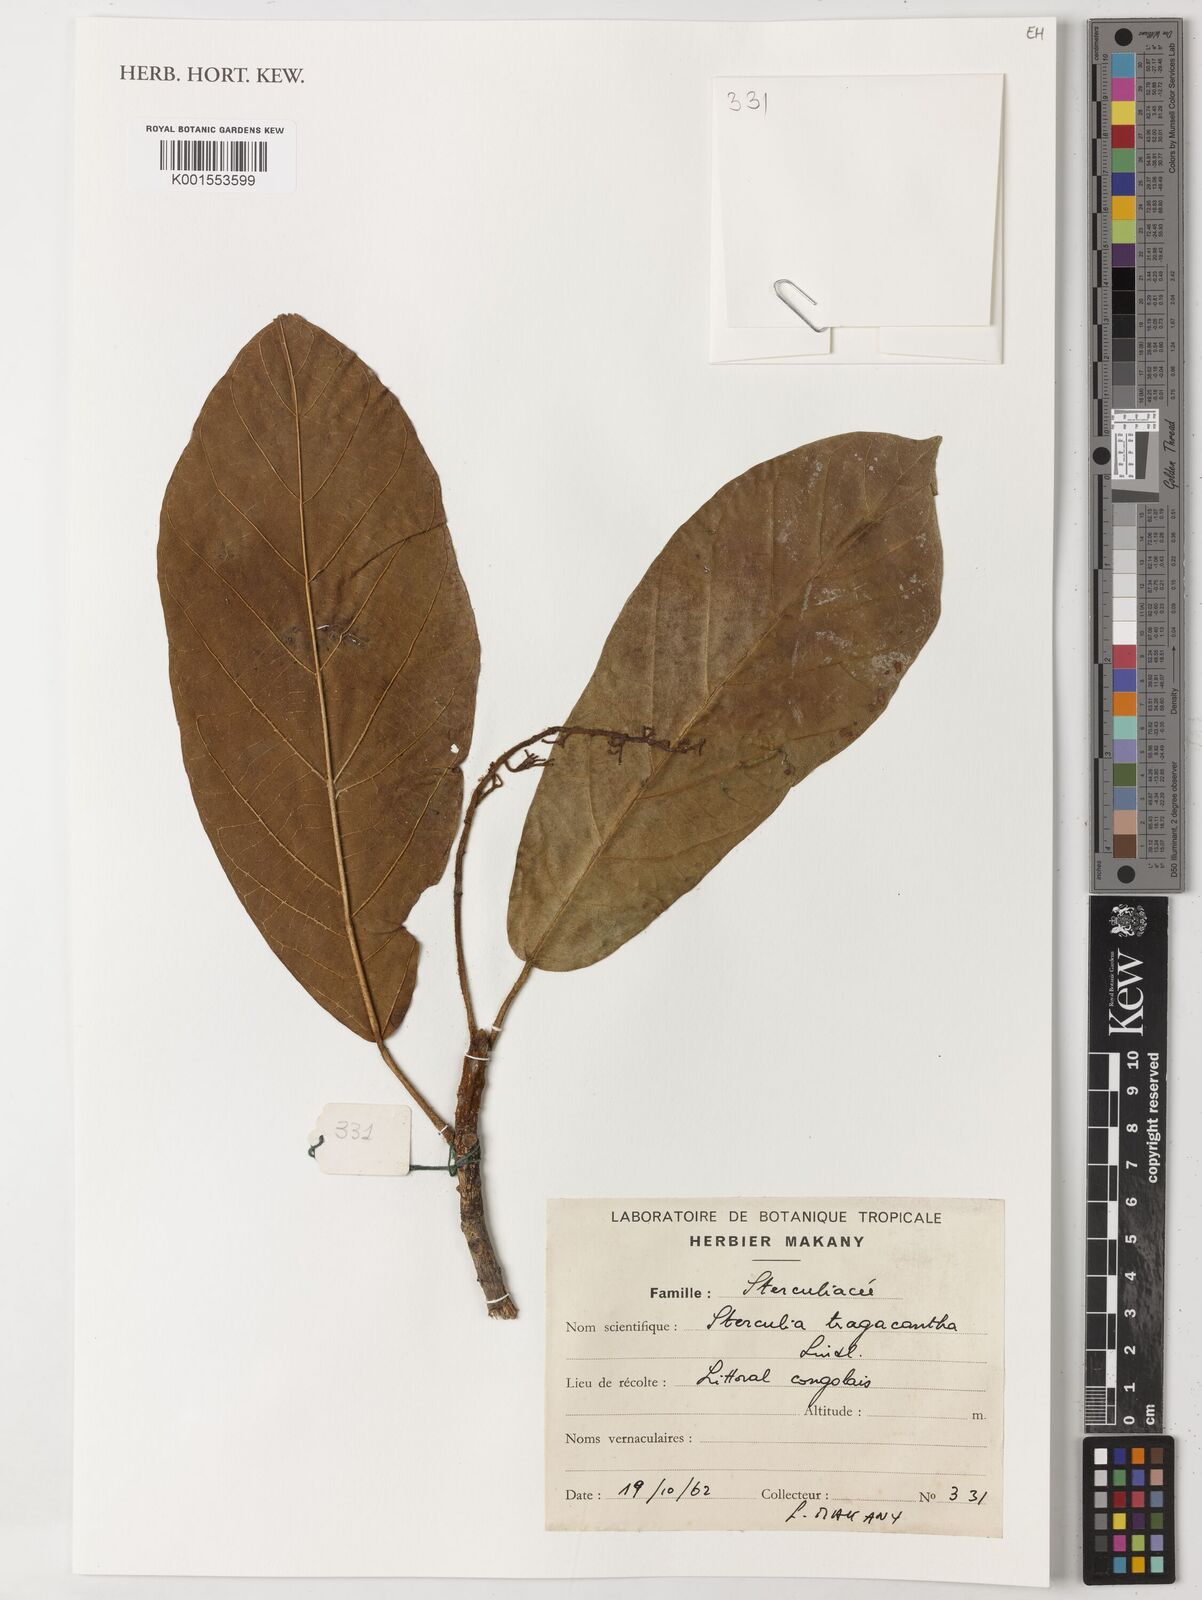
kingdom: Plantae
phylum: Tracheophyta
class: Magnoliopsida
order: Malvales
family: Malvaceae
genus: Sterculia
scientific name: Sterculia tragacantha
